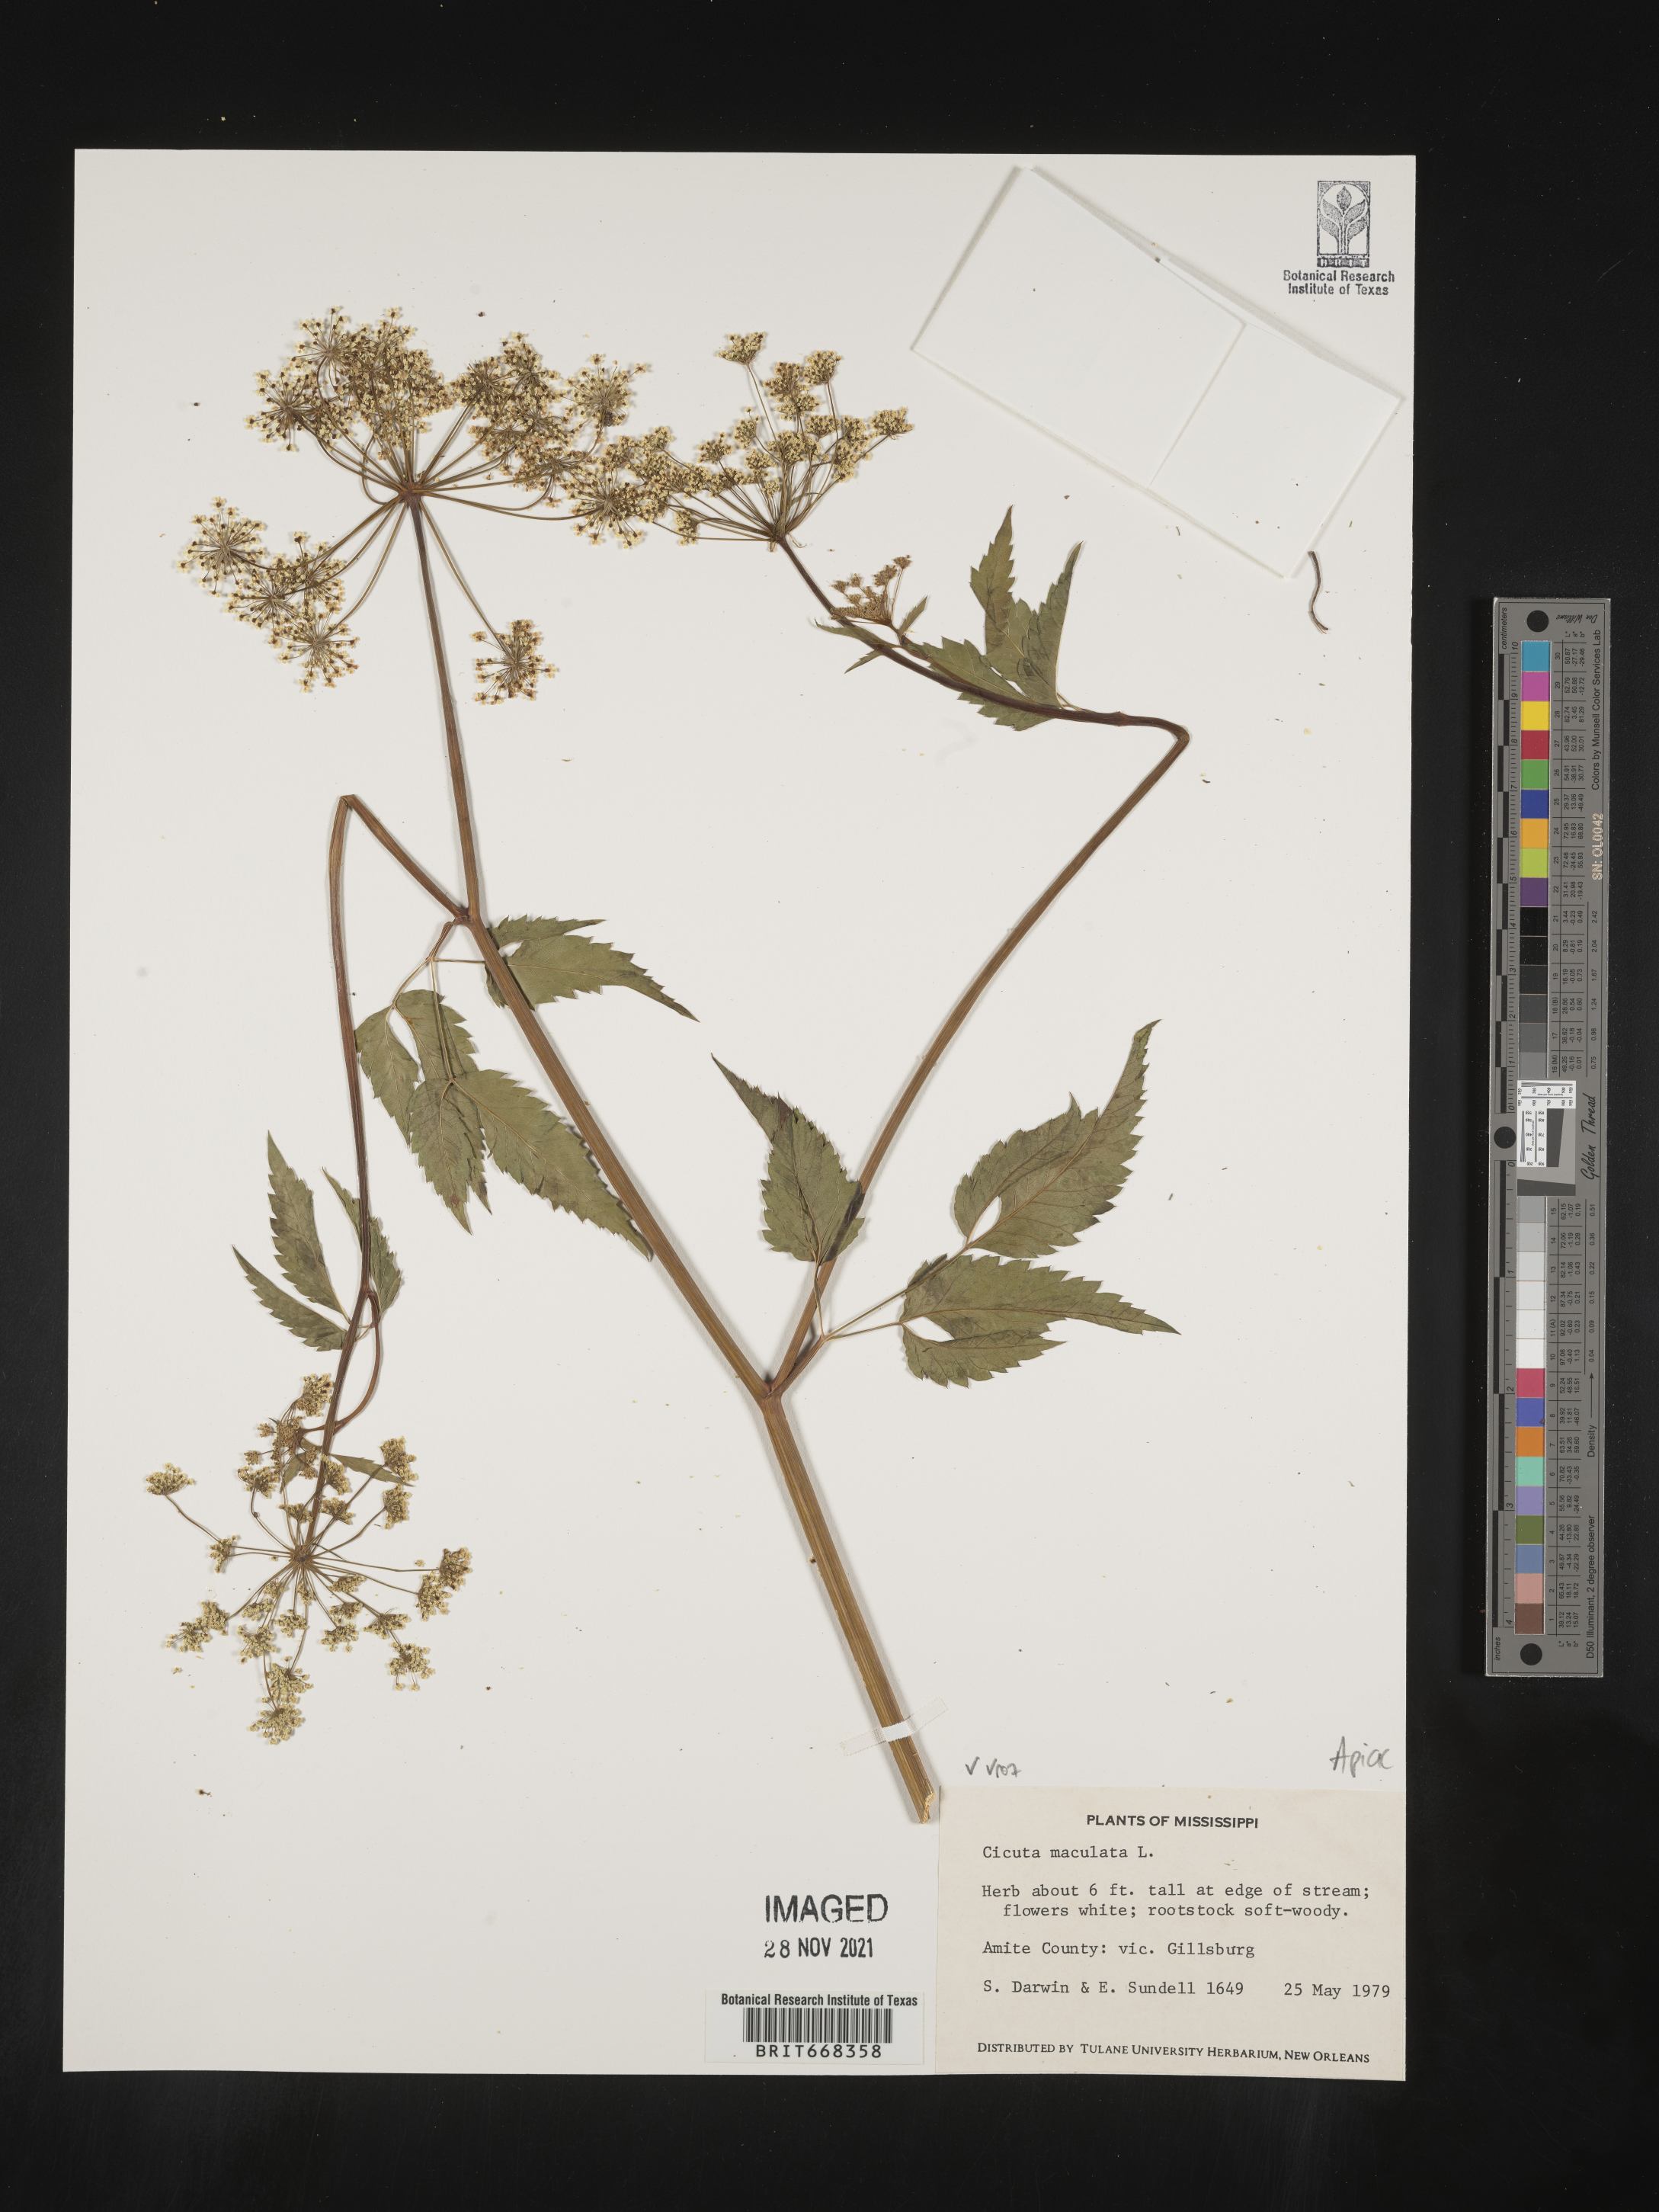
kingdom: Plantae
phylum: Tracheophyta
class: Magnoliopsida
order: Apiales
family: Apiaceae
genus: Cicuta
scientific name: Cicuta
